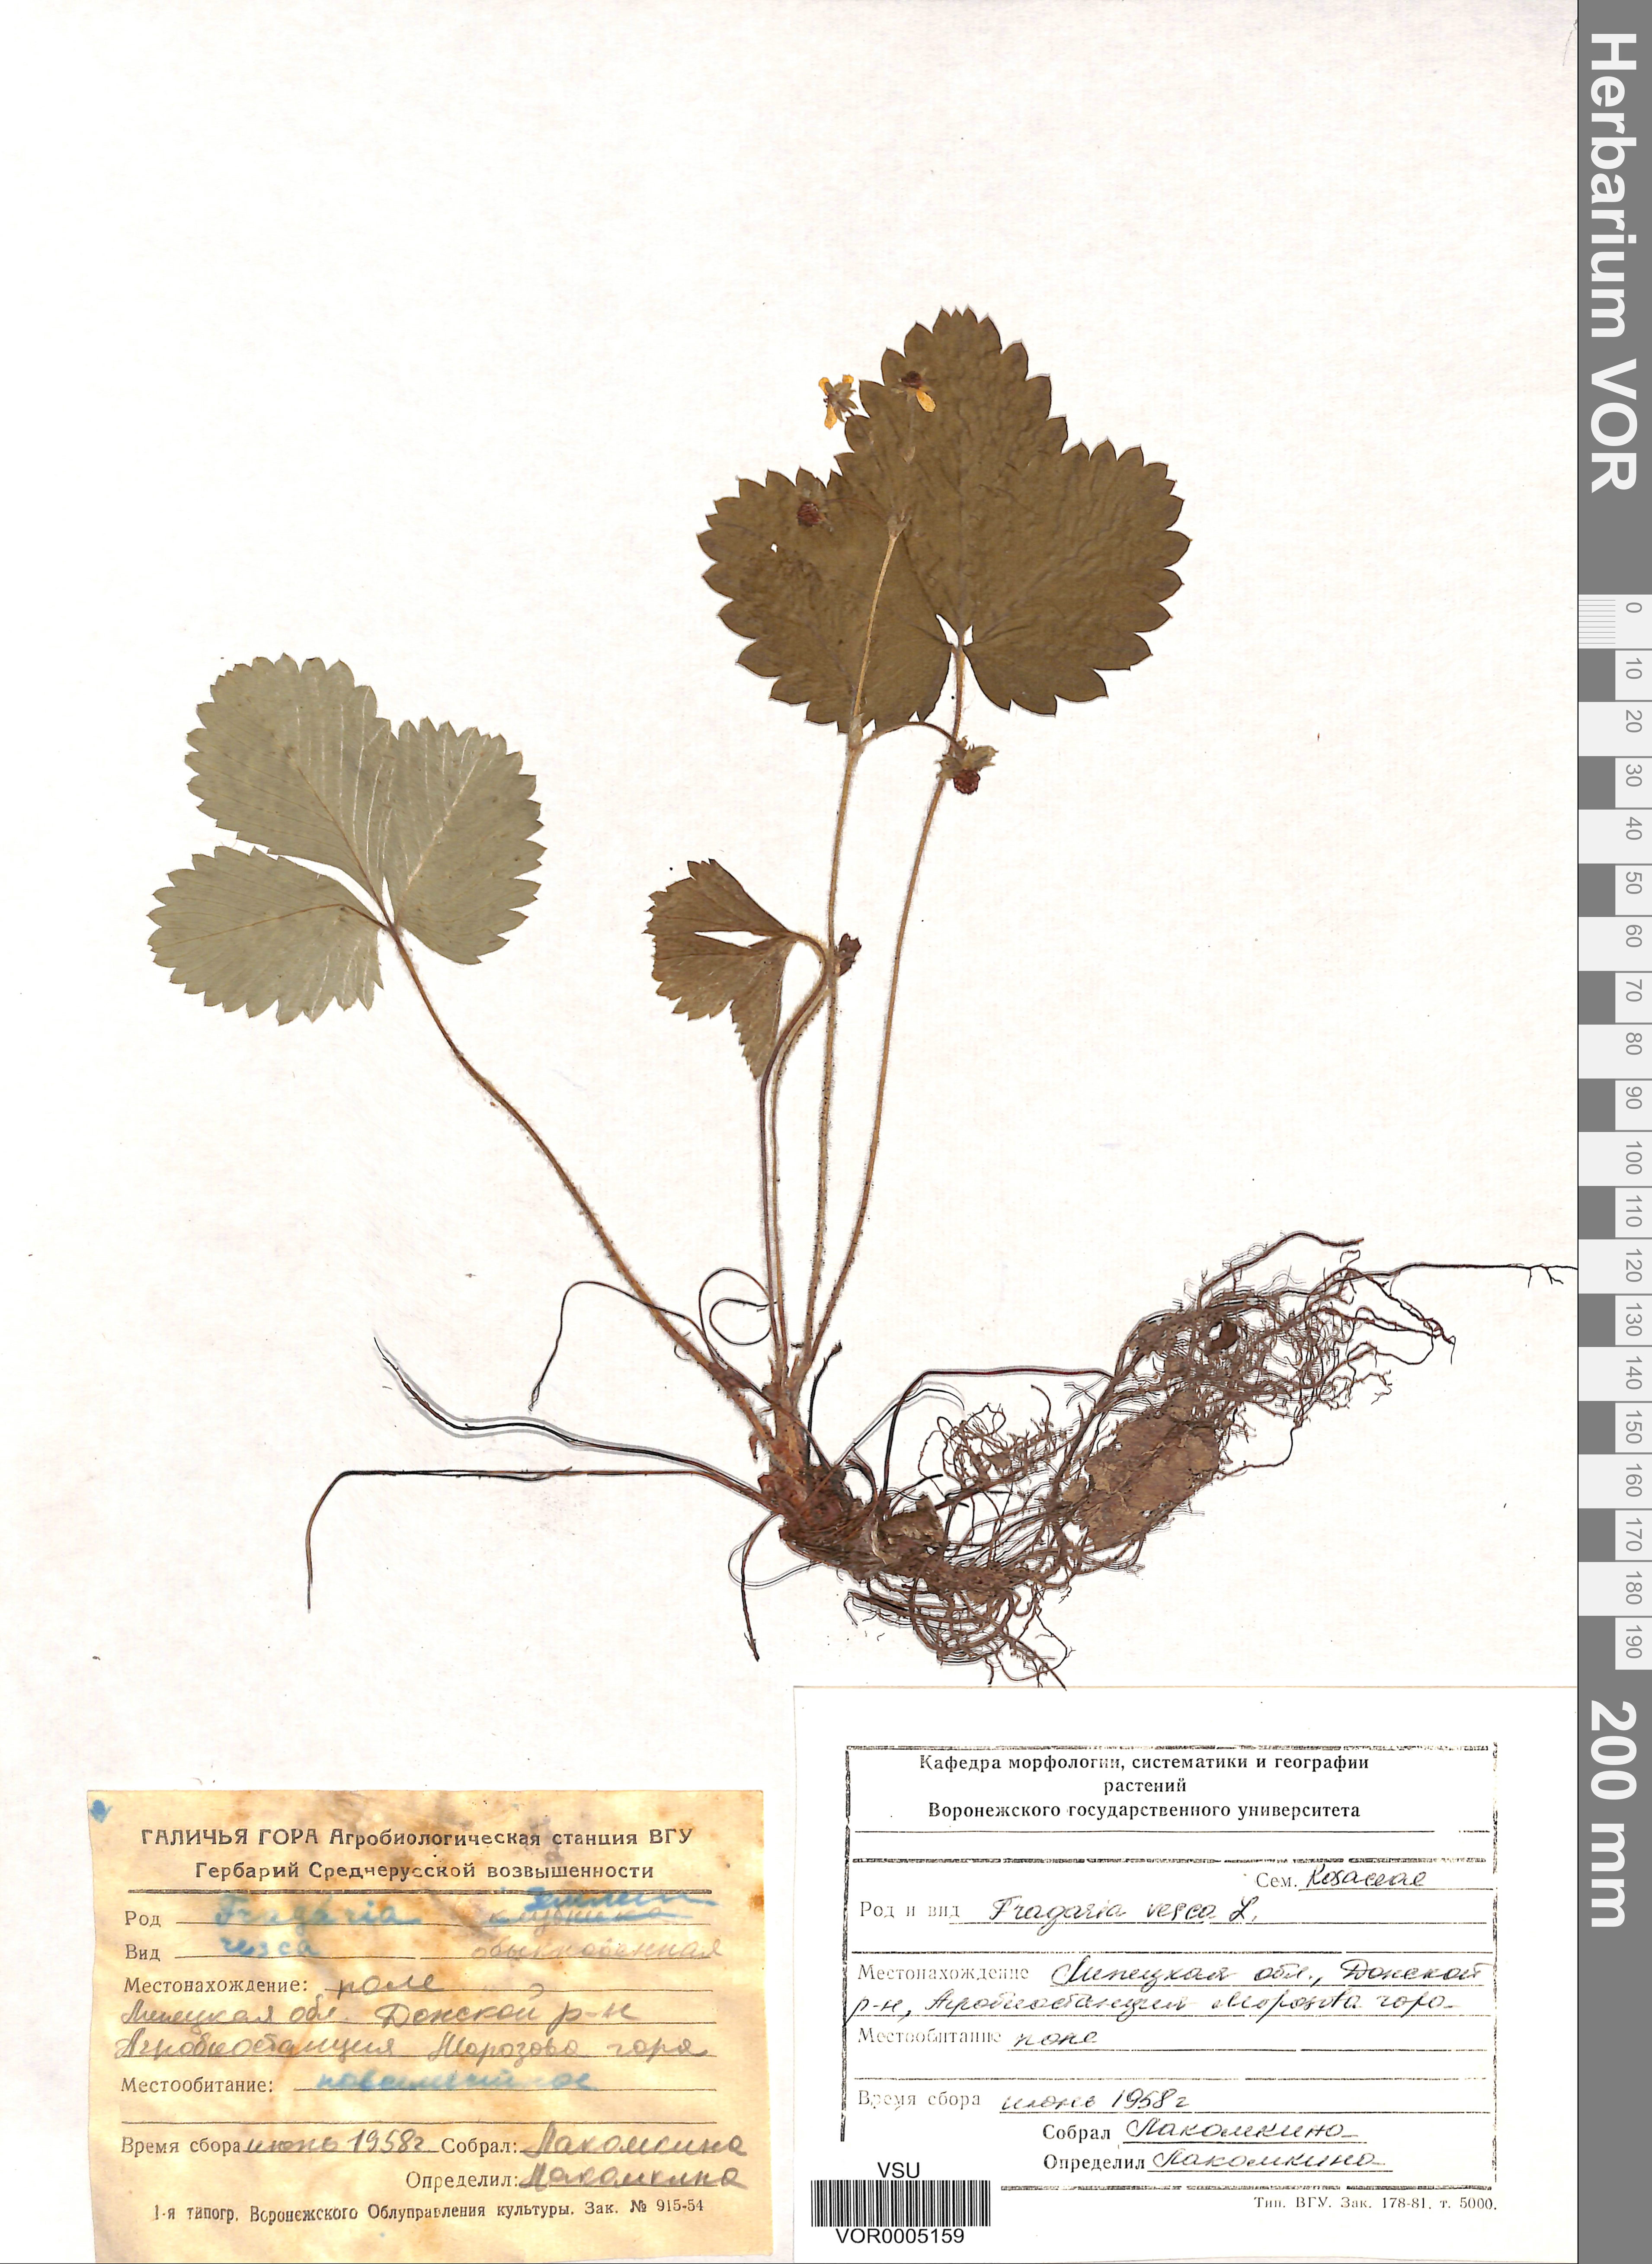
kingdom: Plantae
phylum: Tracheophyta
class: Magnoliopsida
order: Rosales
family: Rosaceae
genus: Fragaria
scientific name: Fragaria vesca
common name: Wild strawberry
